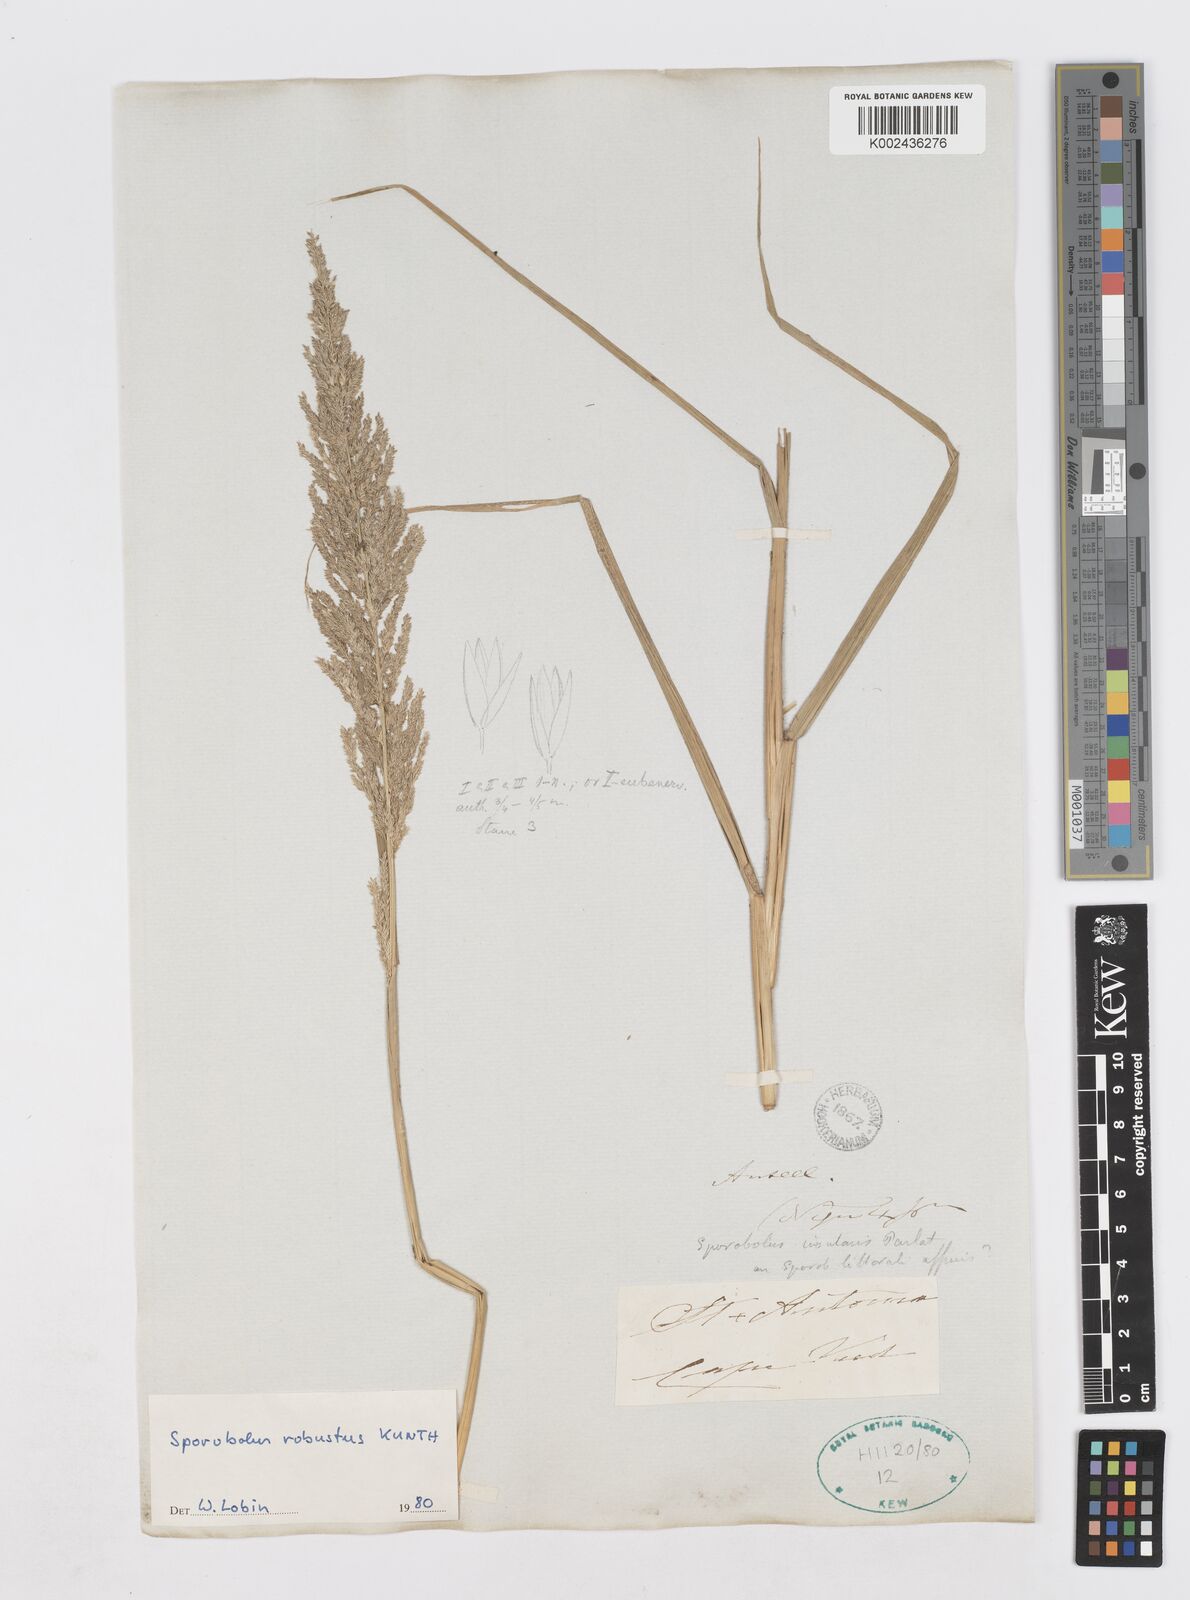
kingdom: Plantae
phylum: Tracheophyta
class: Liliopsida
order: Poales
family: Poaceae
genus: Sporobolus
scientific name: Sporobolus robustus
